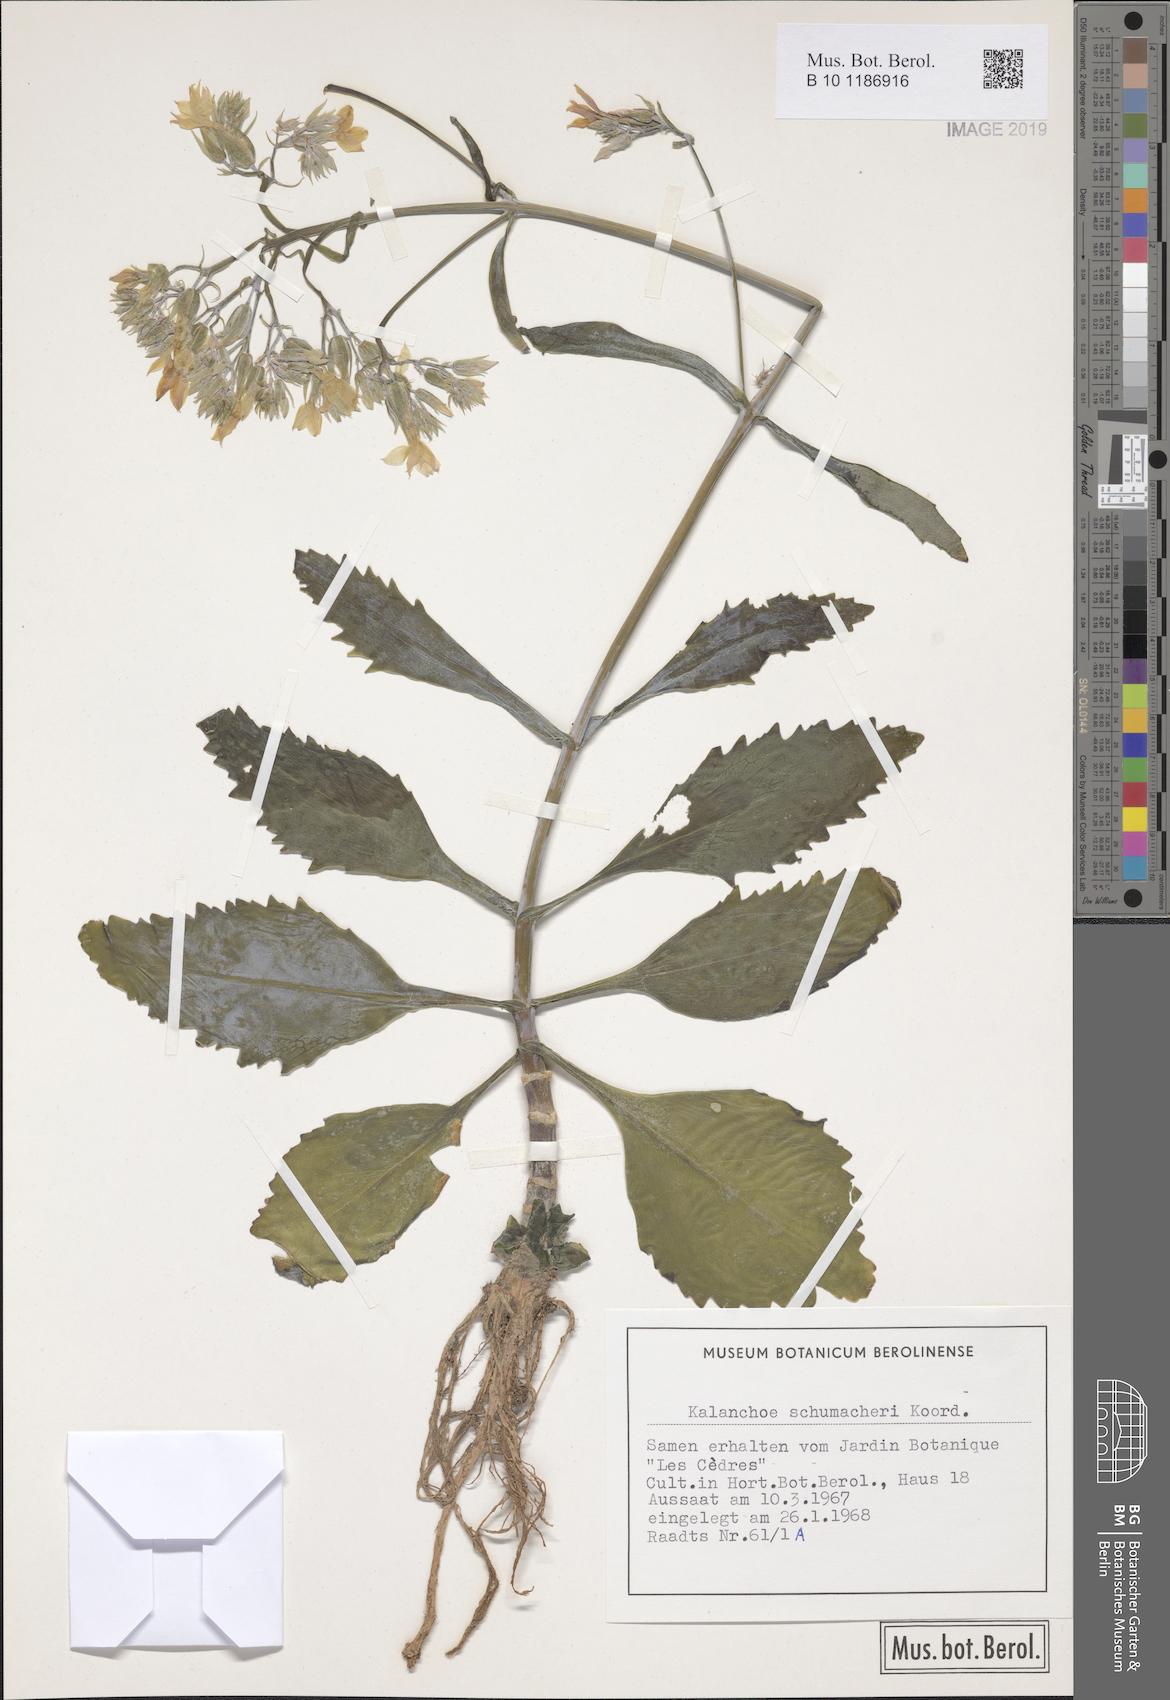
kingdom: Plantae
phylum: Tracheophyta
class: Magnoliopsida
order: Saxifragales
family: Crassulaceae
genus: Kalanchoe
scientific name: Kalanchoe integra
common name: Neverdie
